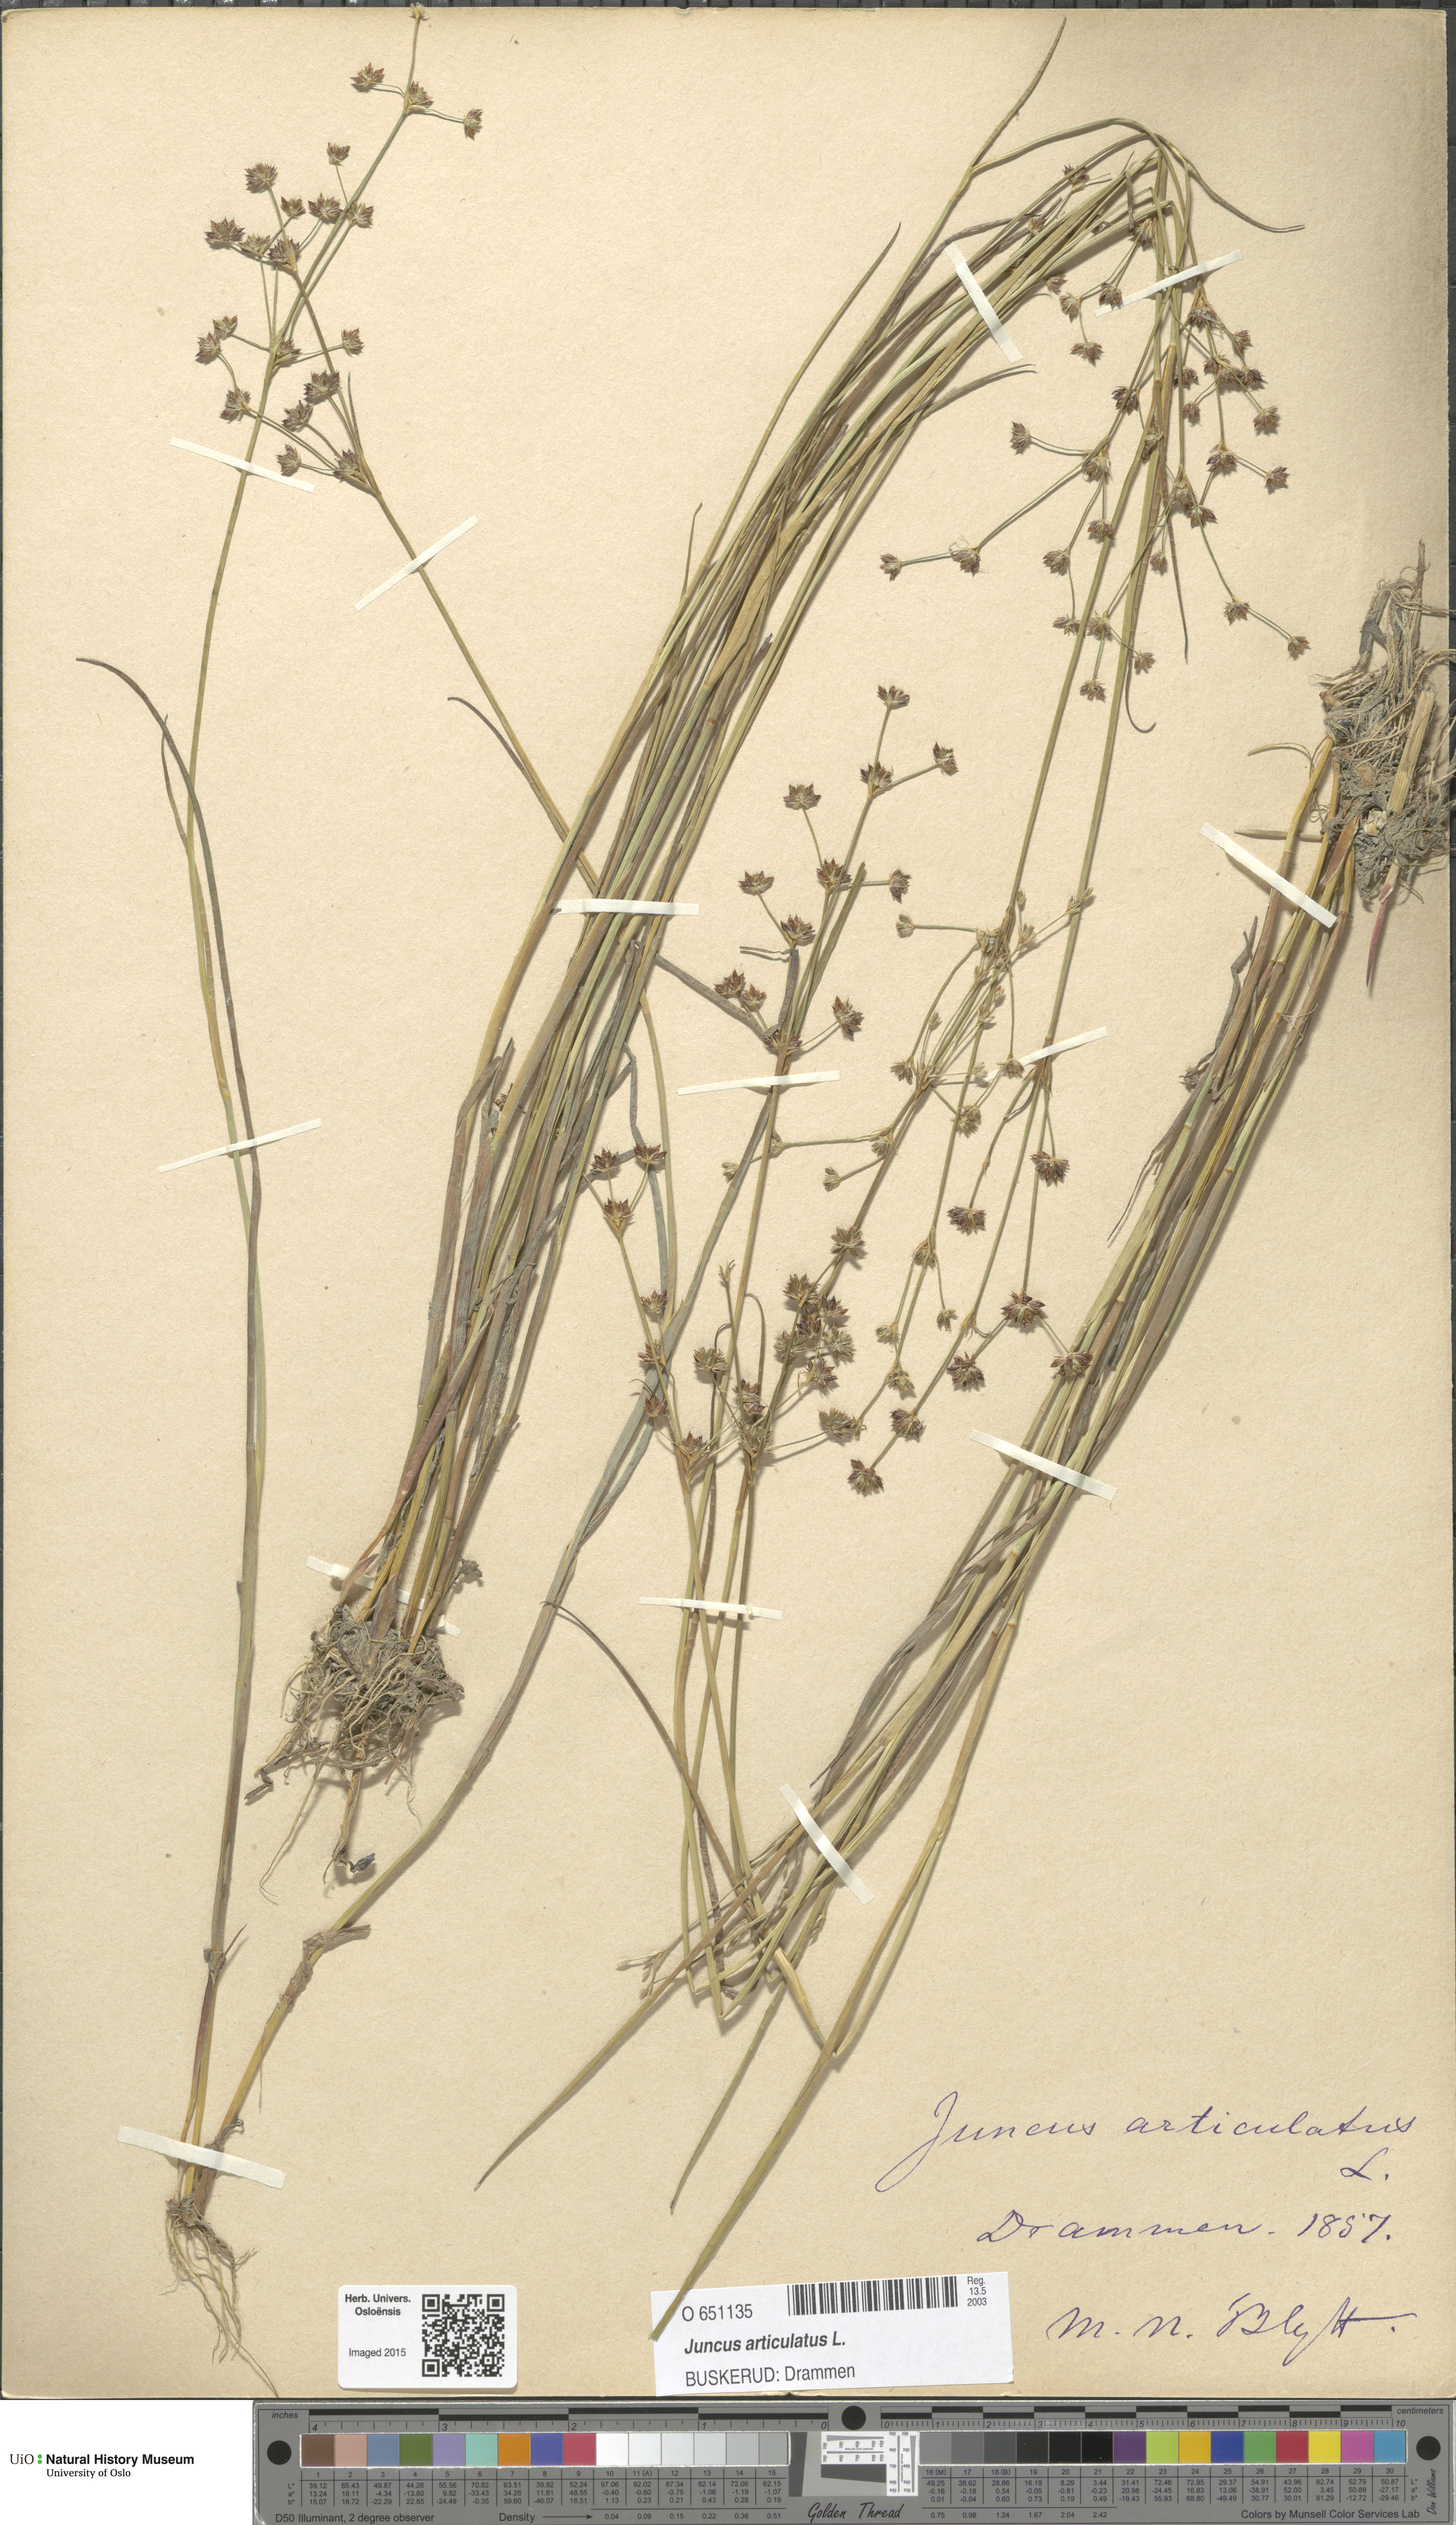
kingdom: Plantae
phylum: Tracheophyta
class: Liliopsida
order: Poales
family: Juncaceae
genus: Juncus
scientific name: Juncus articulatus
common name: Jointed rush
